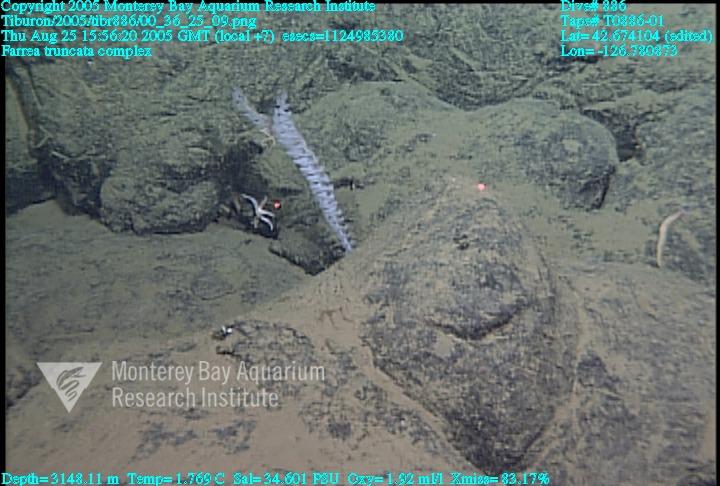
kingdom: Animalia
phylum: Porifera
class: Hexactinellida
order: Sceptrulophora
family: Farreidae
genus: Farrea
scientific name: Farrea truncata
